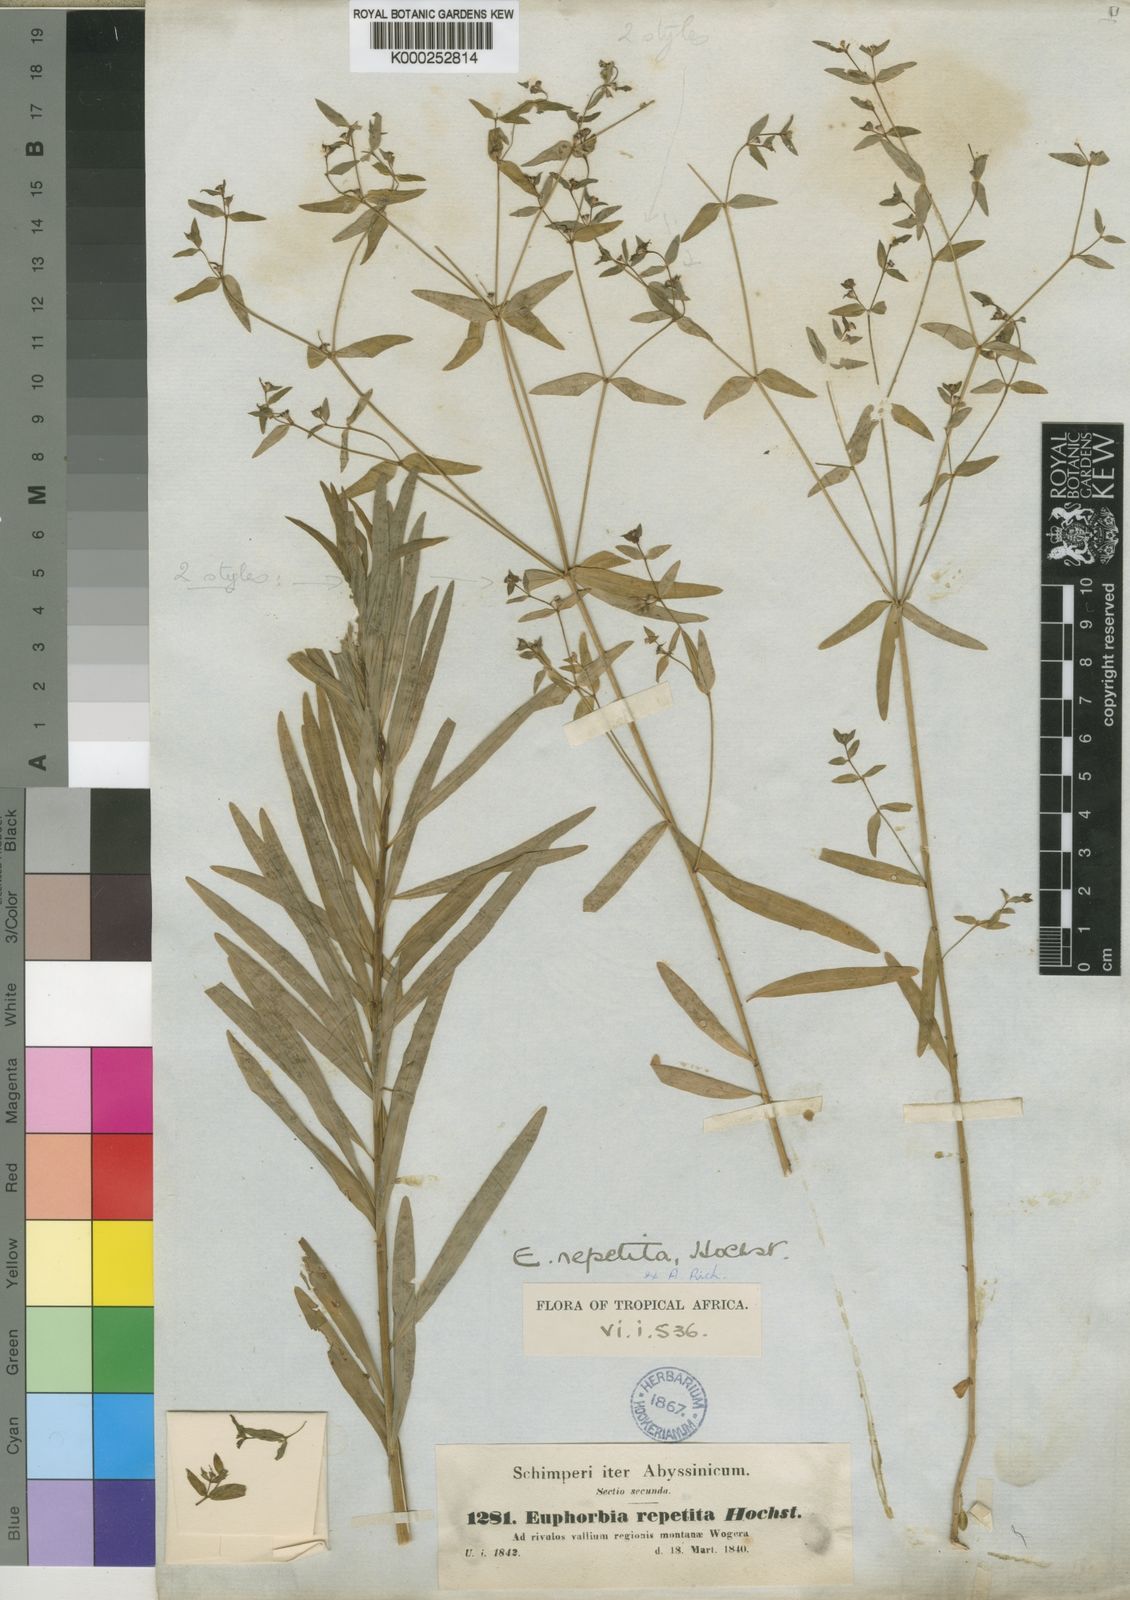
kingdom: Plantae
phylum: Tracheophyta
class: Magnoliopsida
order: Malpighiales
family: Euphorbiaceae
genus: Euphorbia
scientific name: Euphorbia repetita
